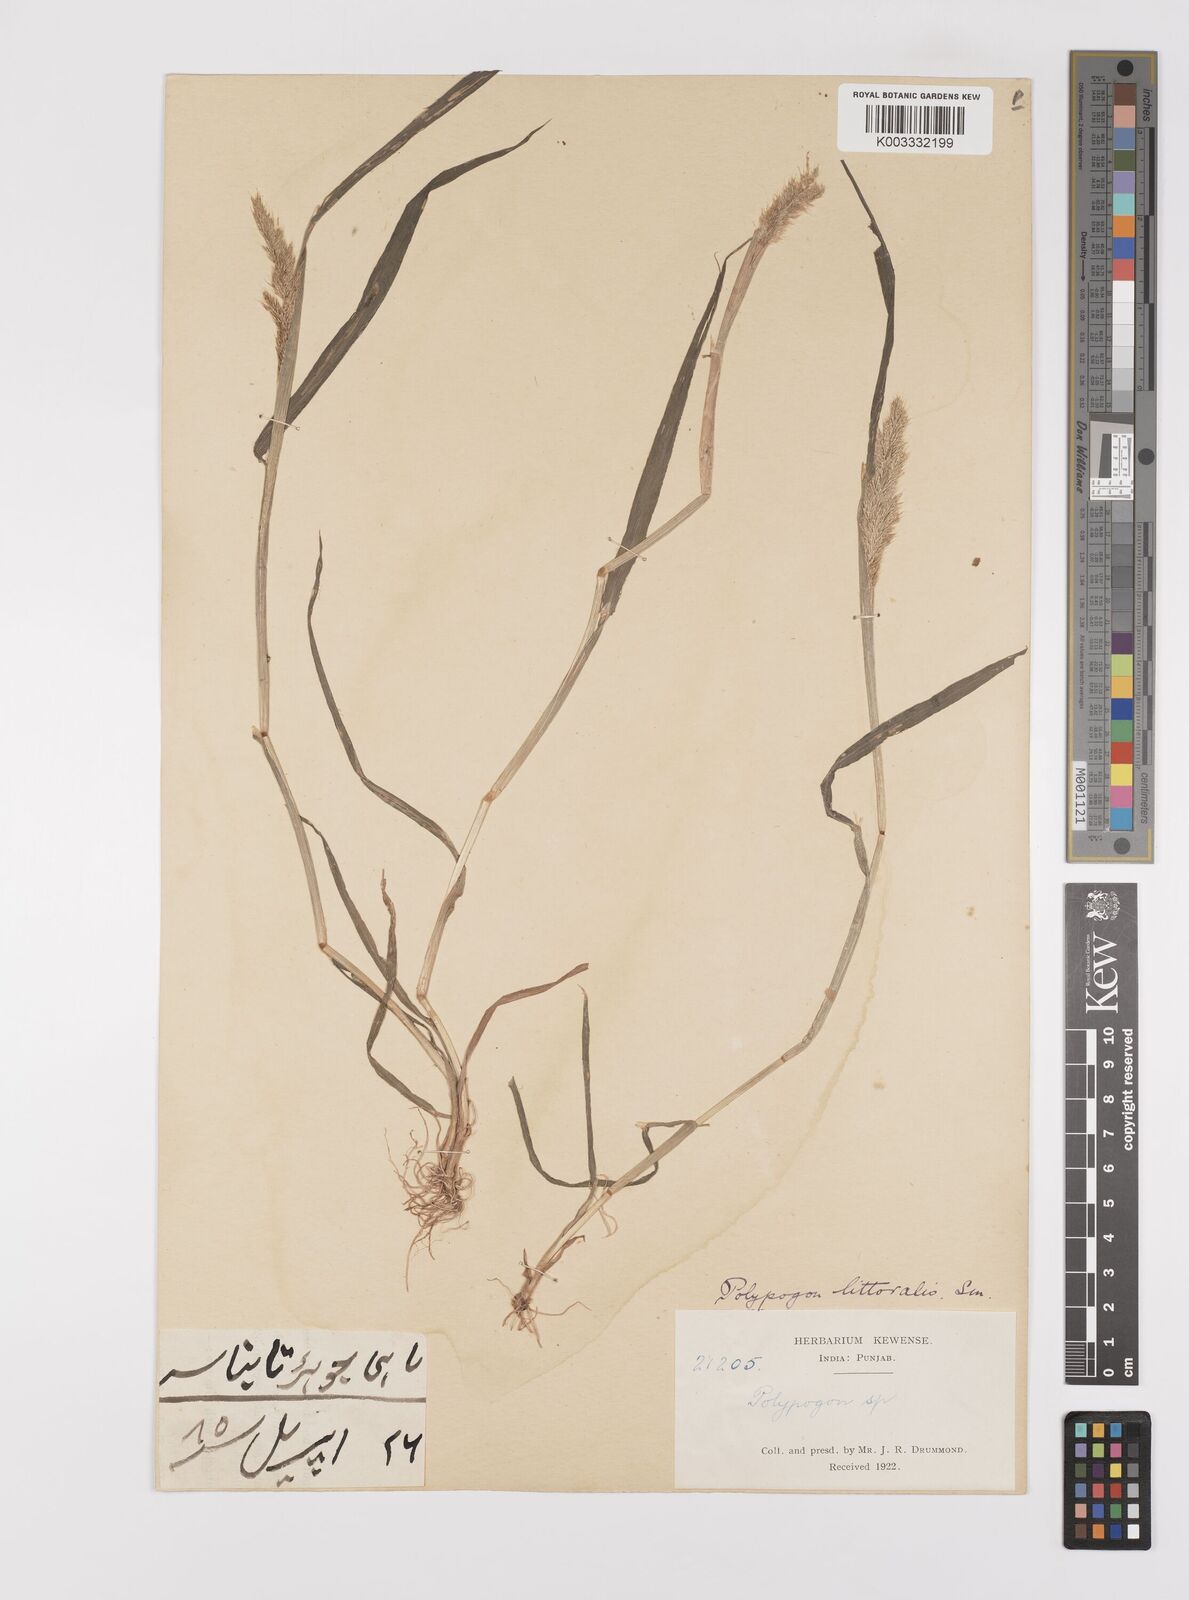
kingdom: Plantae
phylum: Tracheophyta
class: Liliopsida
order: Poales
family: Poaceae
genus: Polypogon
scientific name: Polypogon fugax
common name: Asia minor bluegrass
